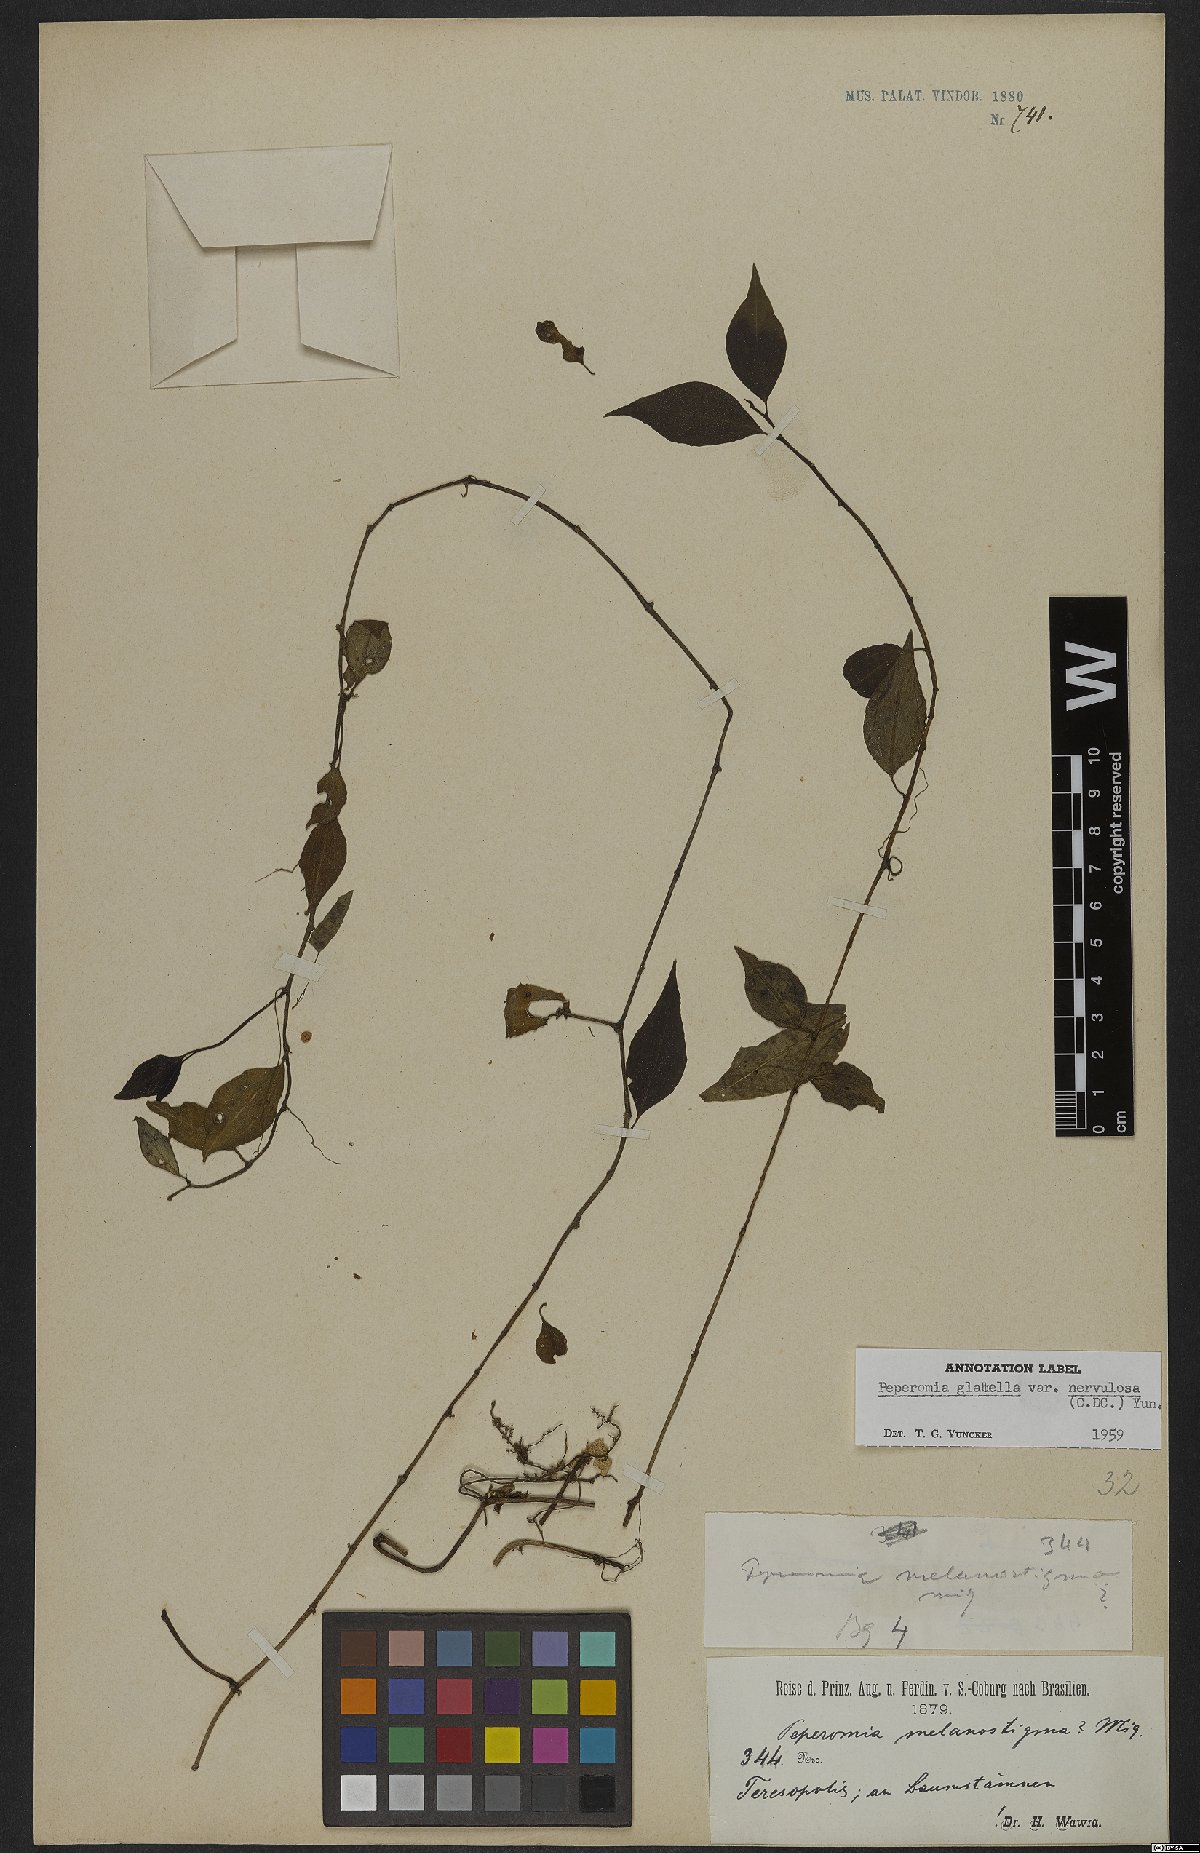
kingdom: Plantae
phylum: Tracheophyta
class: Magnoliopsida
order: Piperales
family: Piperaceae
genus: Peperomia
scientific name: Peperomia glabella
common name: Cypress peperomia
